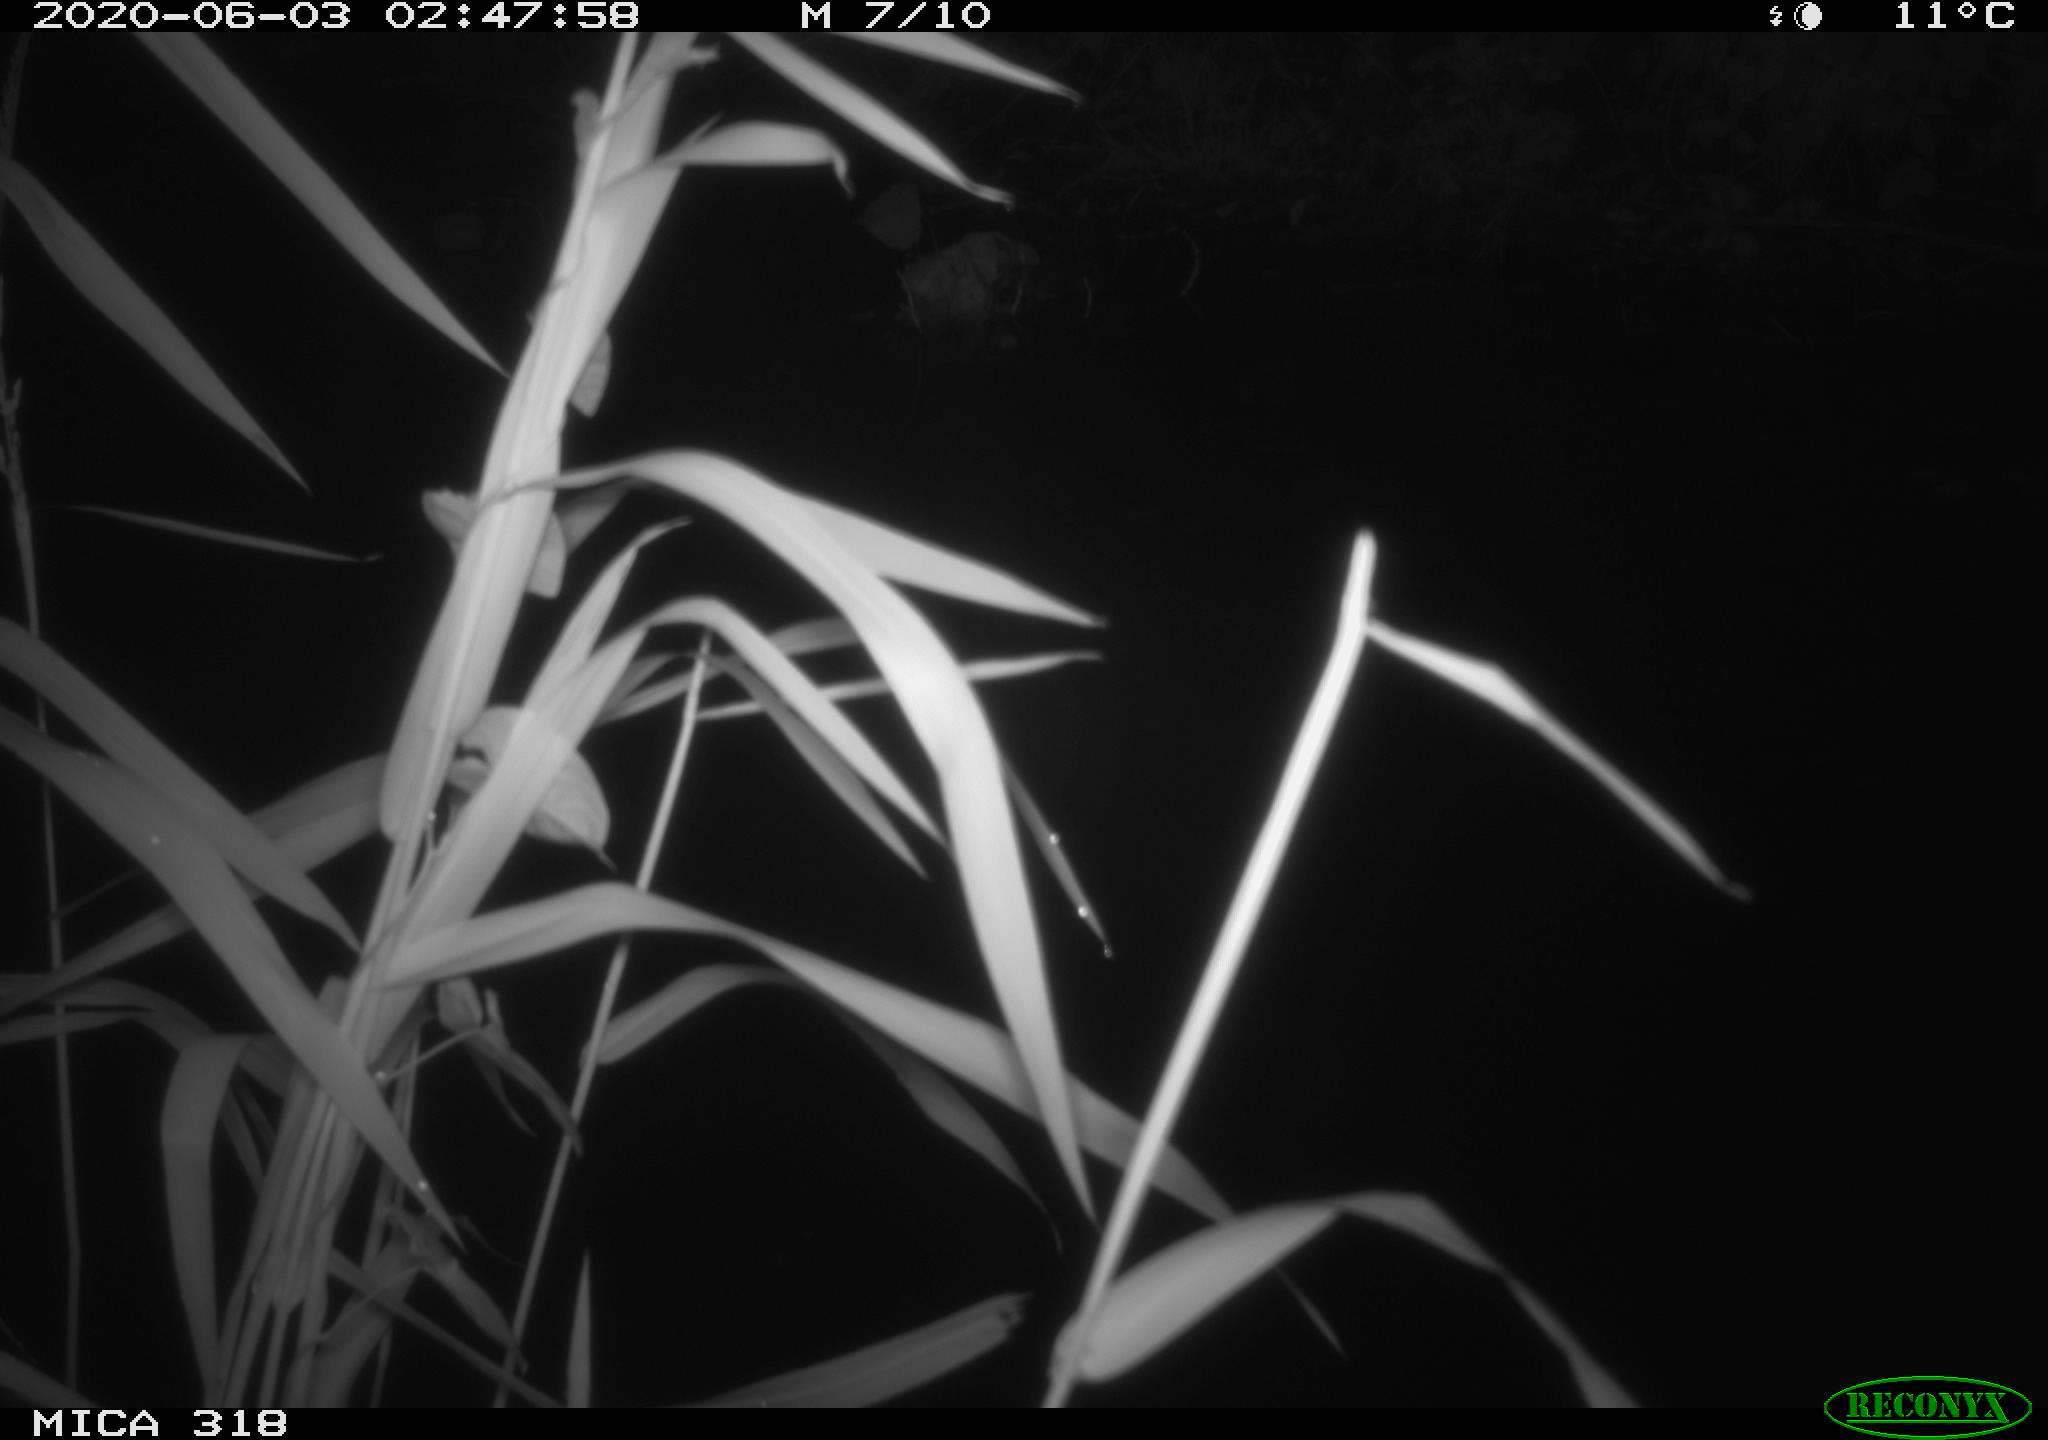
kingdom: Animalia
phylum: Chordata
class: Aves
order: Pelecaniformes
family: Ardeidae
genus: Ardea
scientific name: Ardea cinerea
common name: Grey heron
